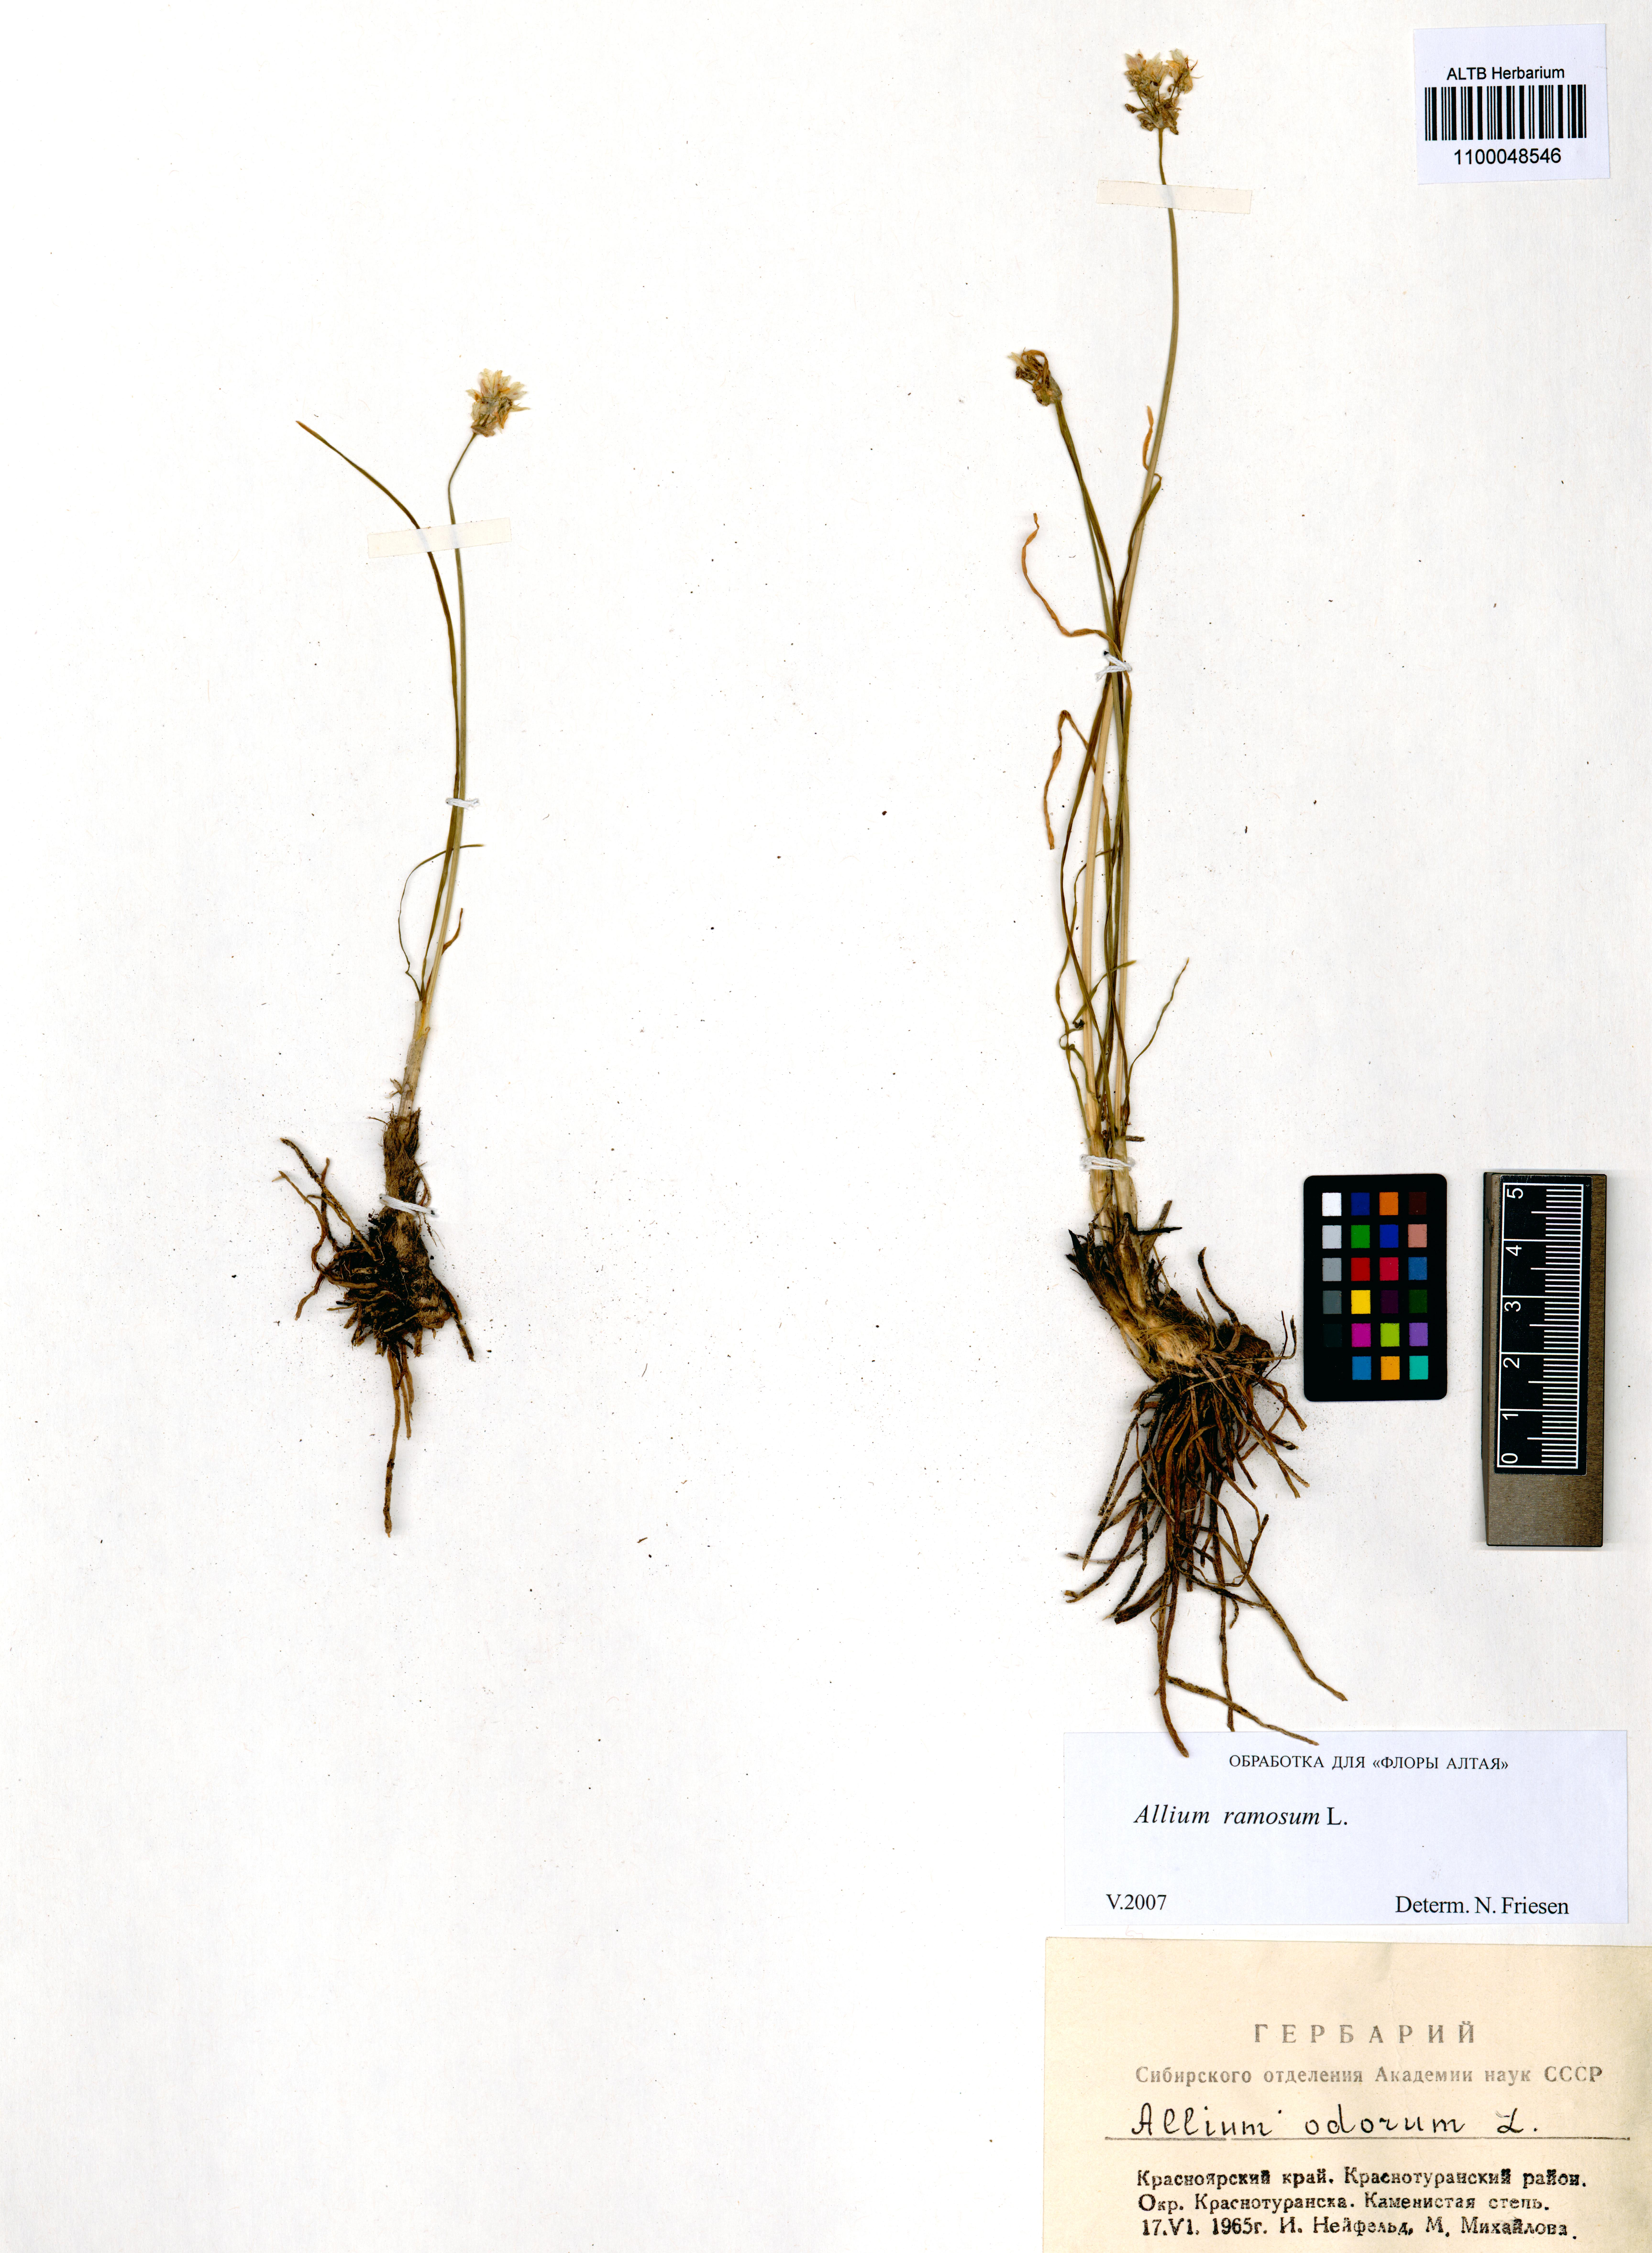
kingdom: Plantae
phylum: Tracheophyta
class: Liliopsida
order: Asparagales
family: Amaryllidaceae
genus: Allium
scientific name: Allium ramosum
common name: Fragrant garlic
